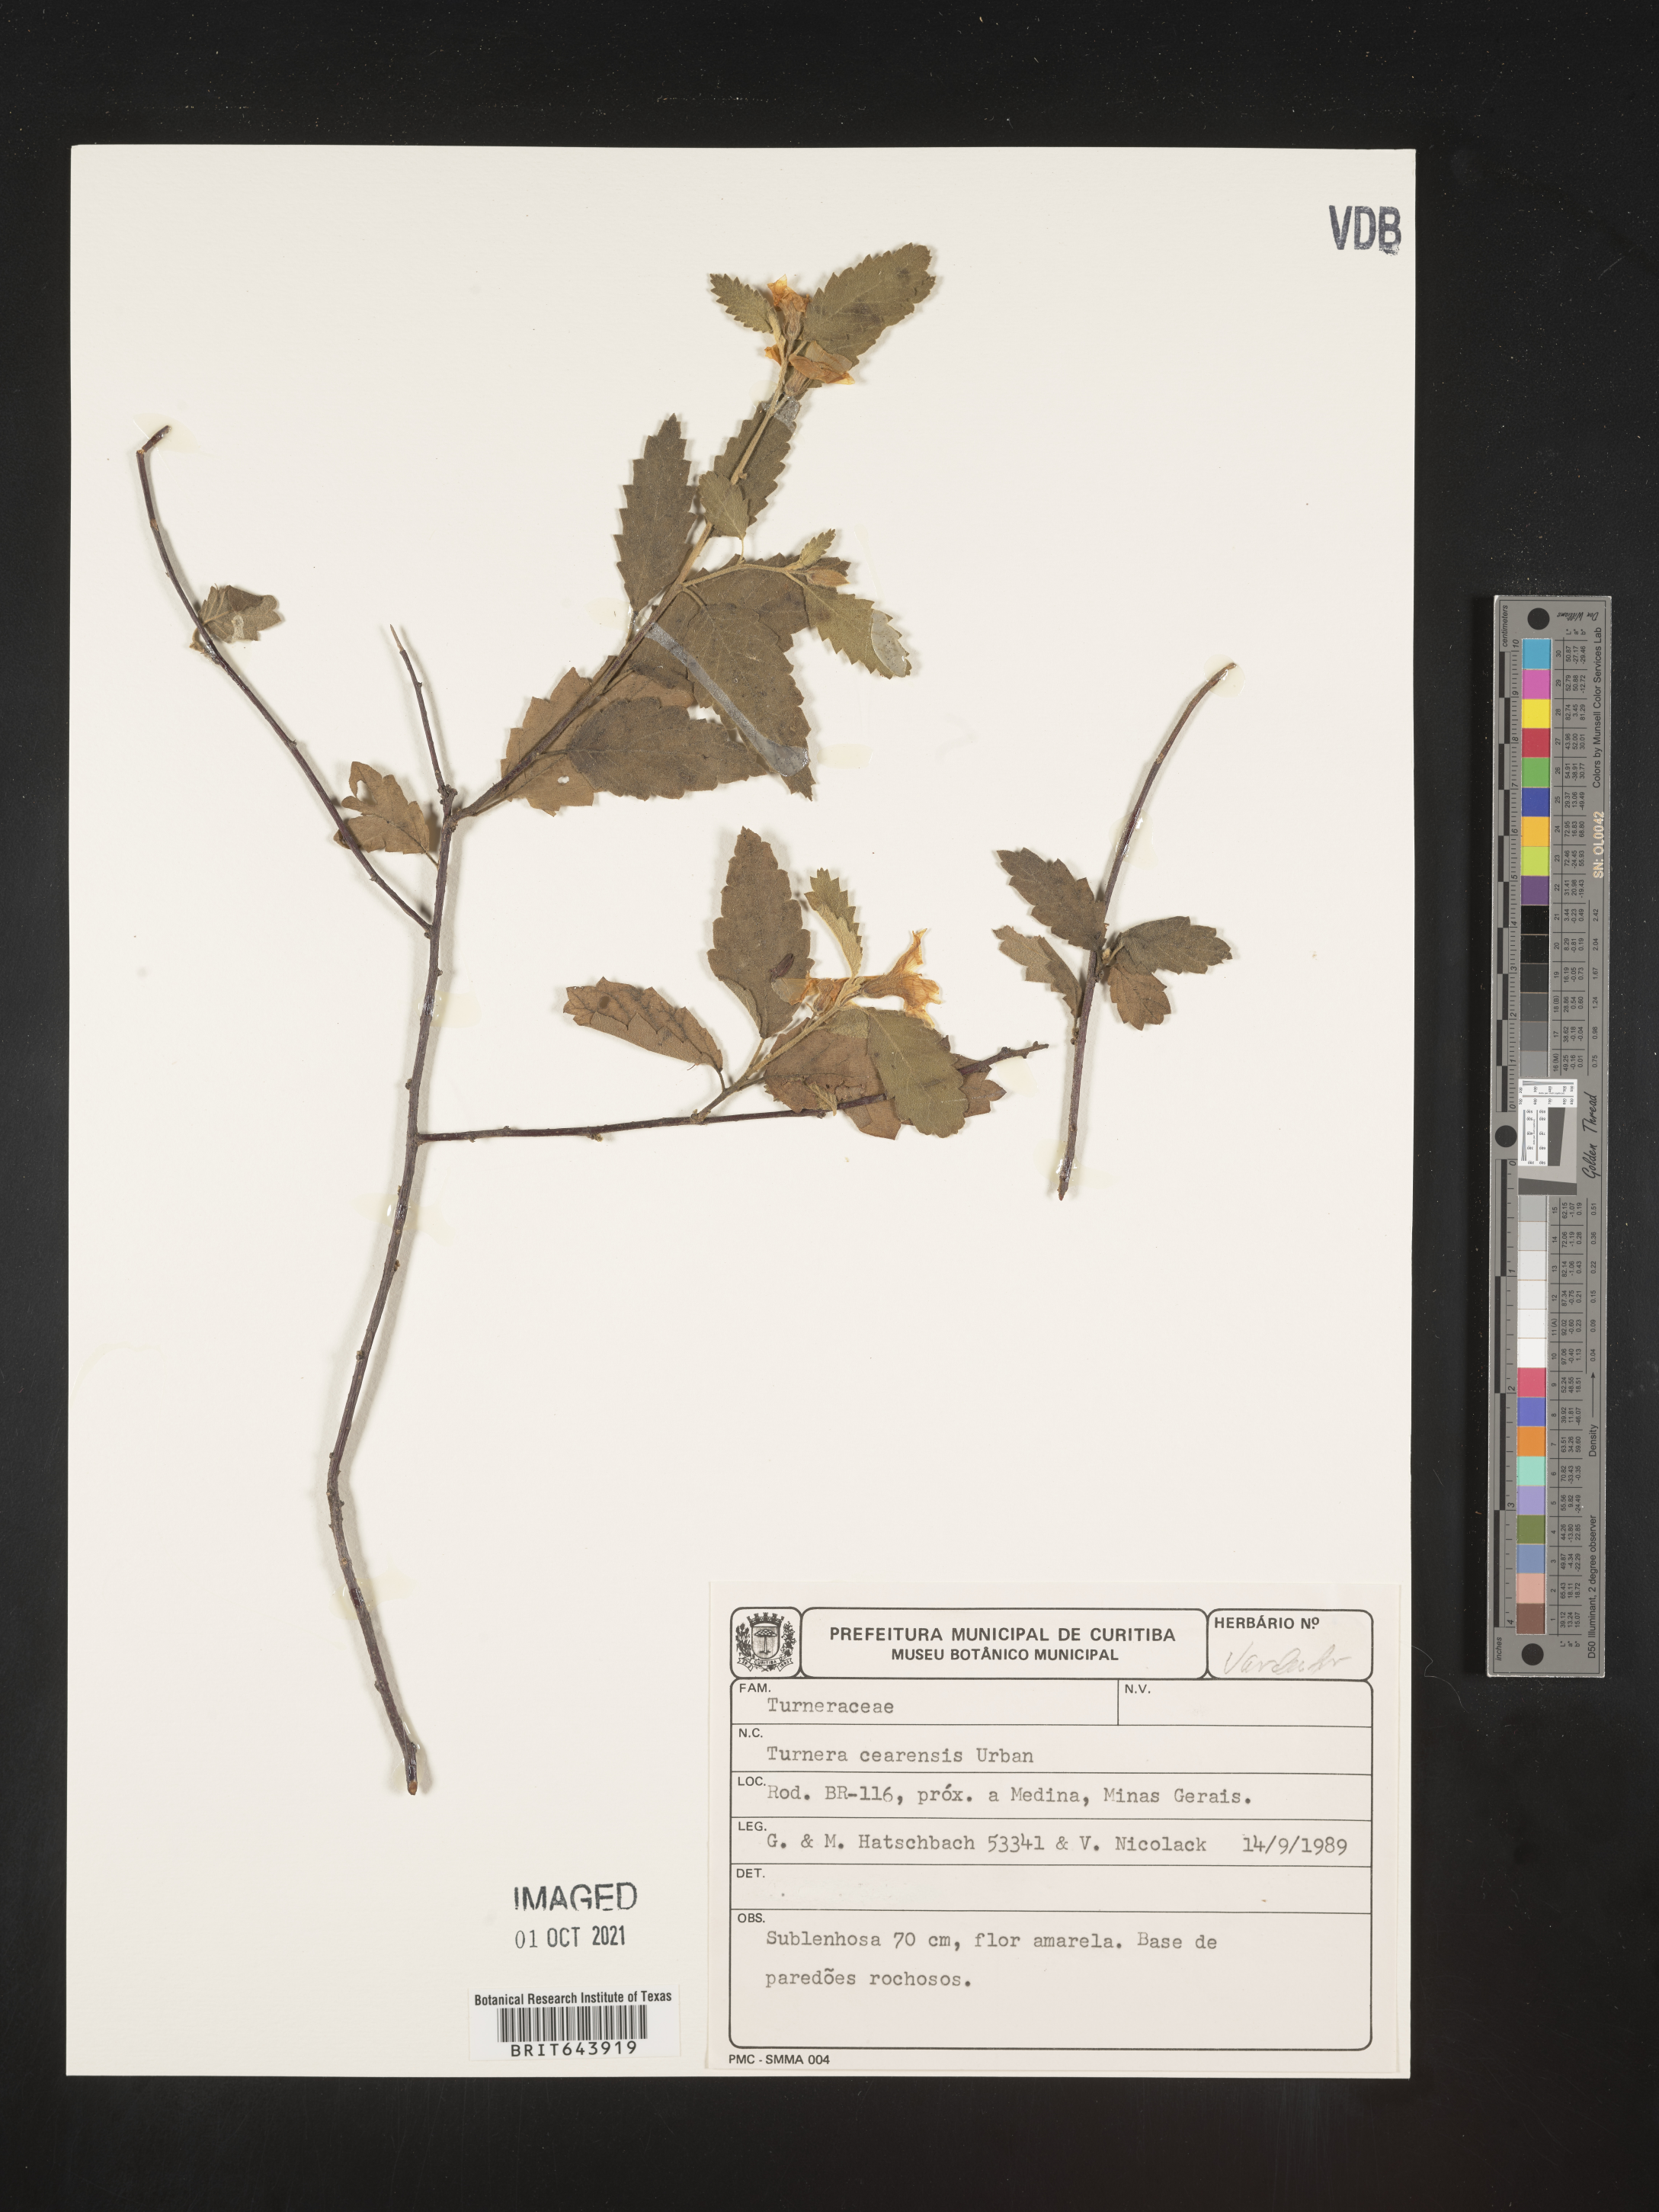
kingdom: Plantae
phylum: Tracheophyta
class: Magnoliopsida
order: Malpighiales
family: Turneraceae
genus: Turnera
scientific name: Turnera
